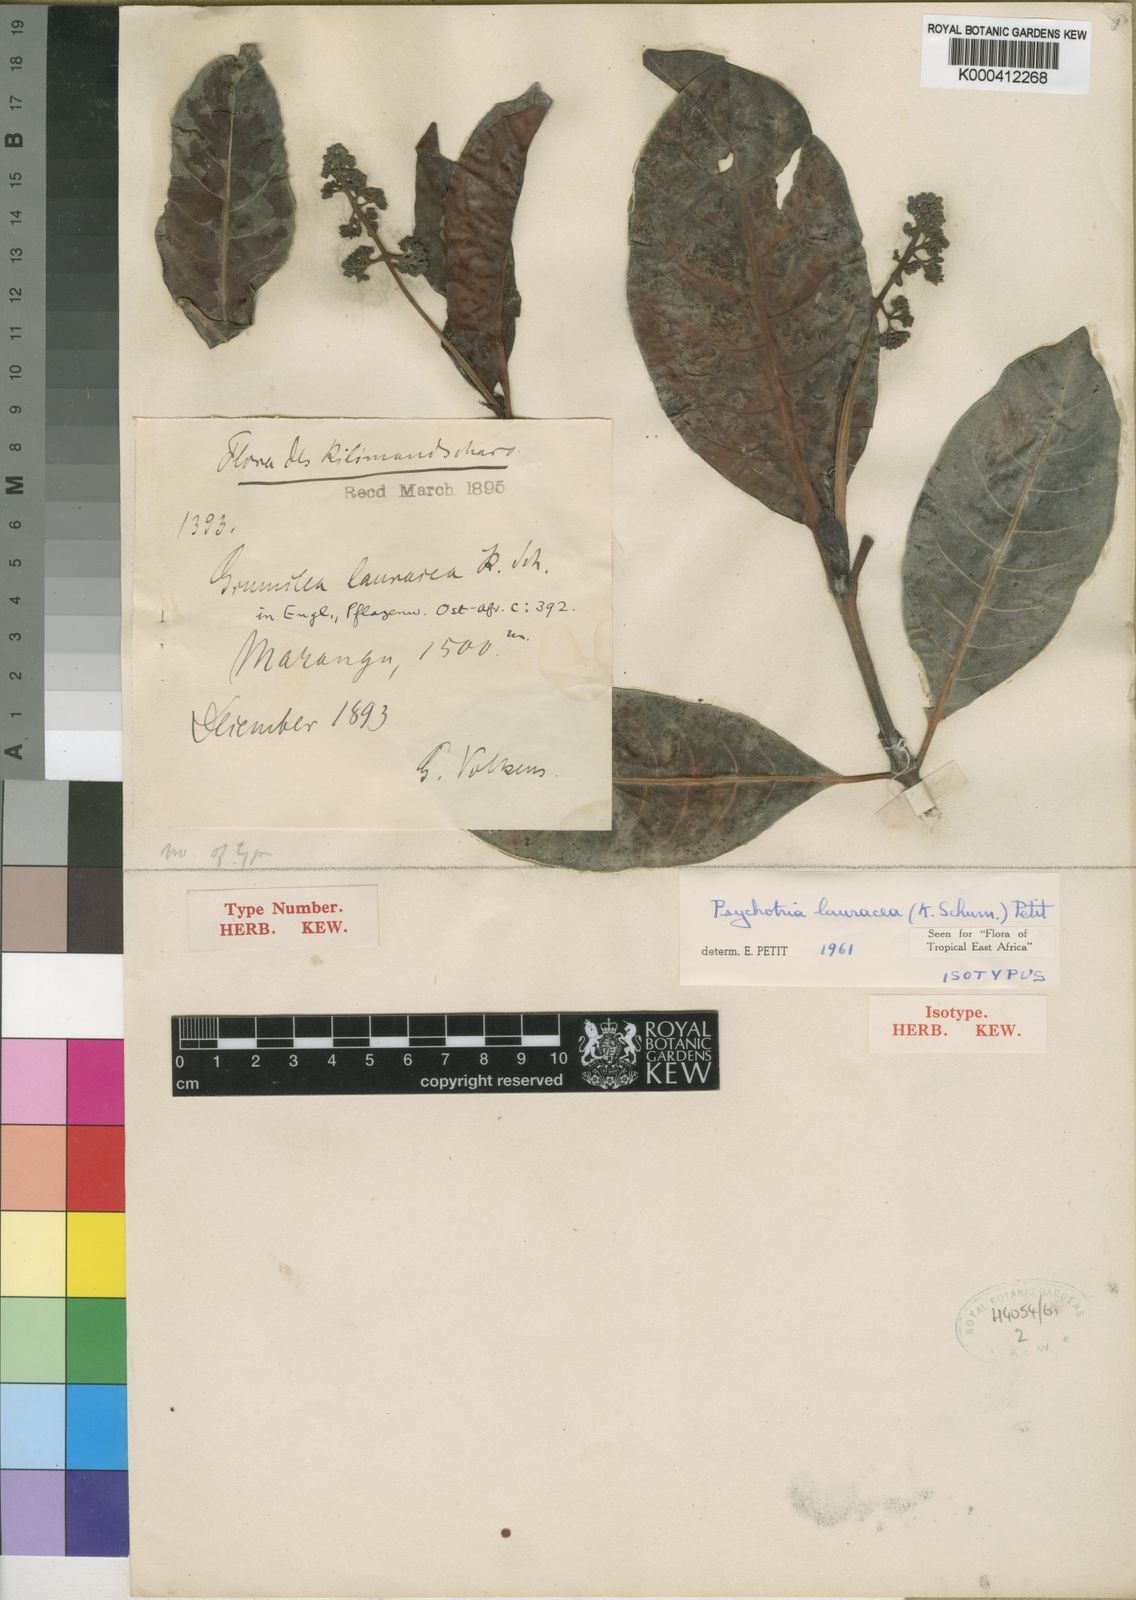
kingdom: Plantae
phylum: Tracheophyta
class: Magnoliopsida
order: Gentianales
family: Rubiaceae
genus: Psychotria
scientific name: Psychotria lauracea
